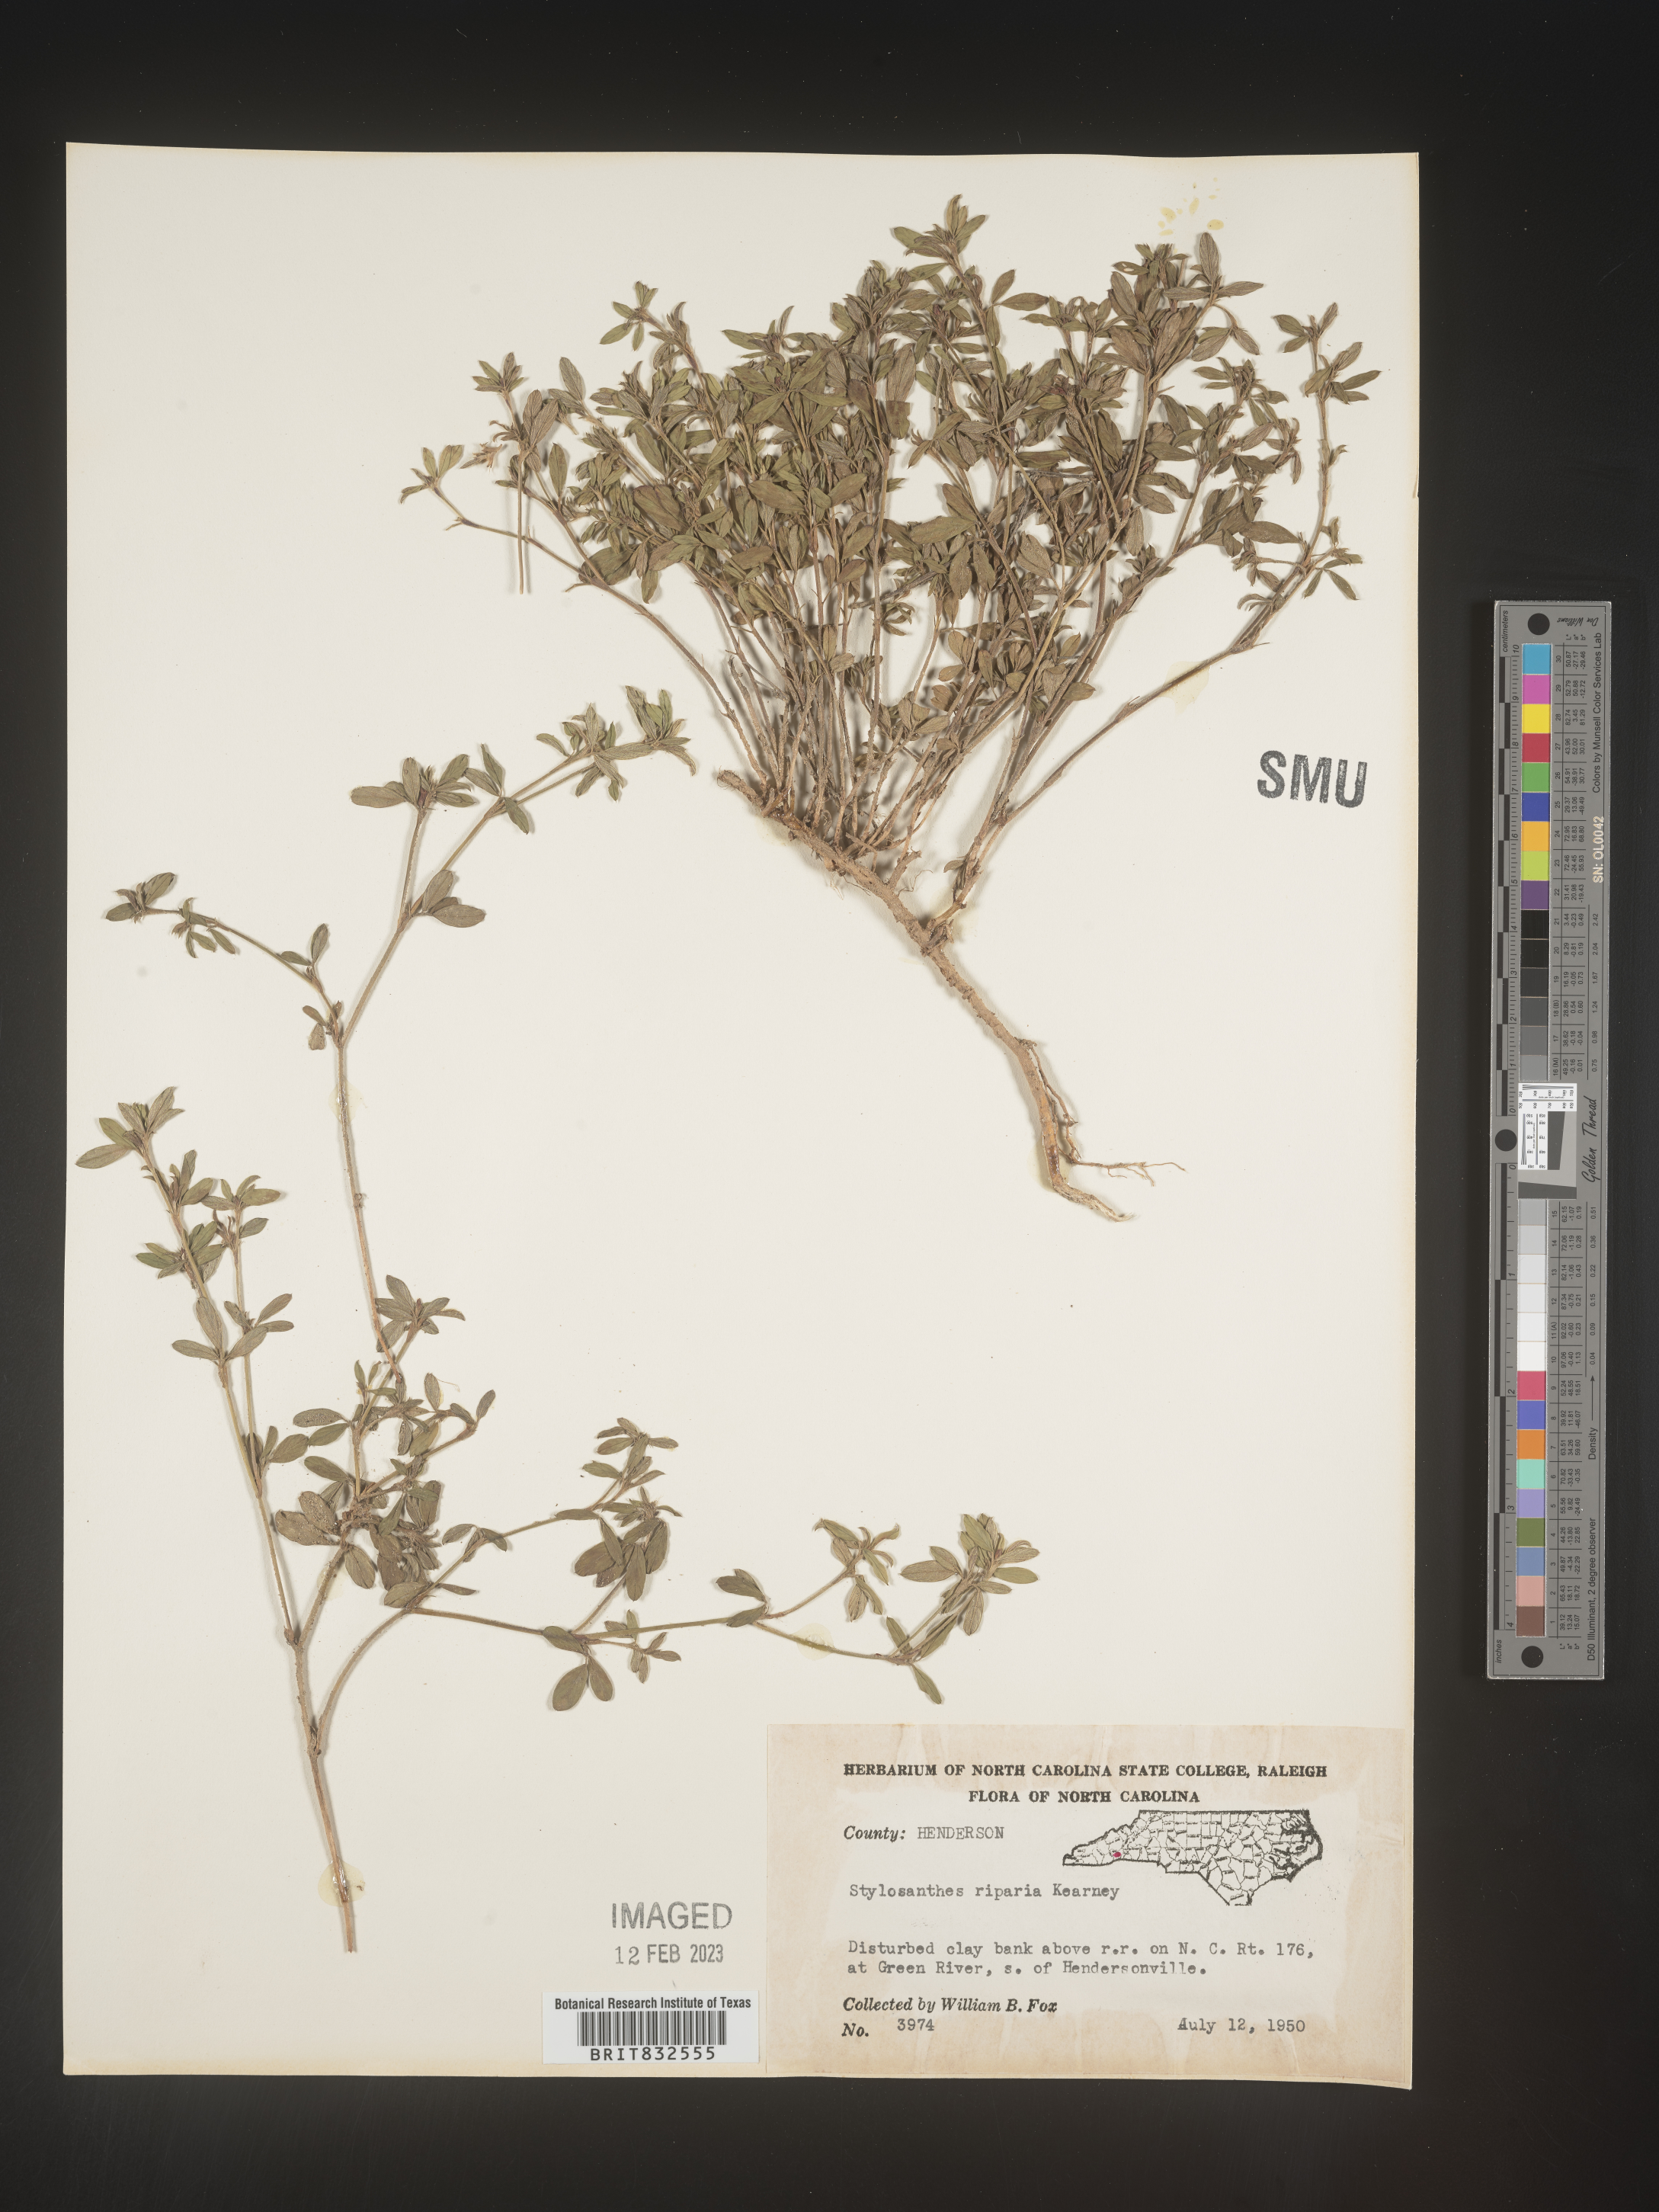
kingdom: Plantae
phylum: Tracheophyta
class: Magnoliopsida
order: Fabales
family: Fabaceae
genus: Stylosanthes
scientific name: Stylosanthes
